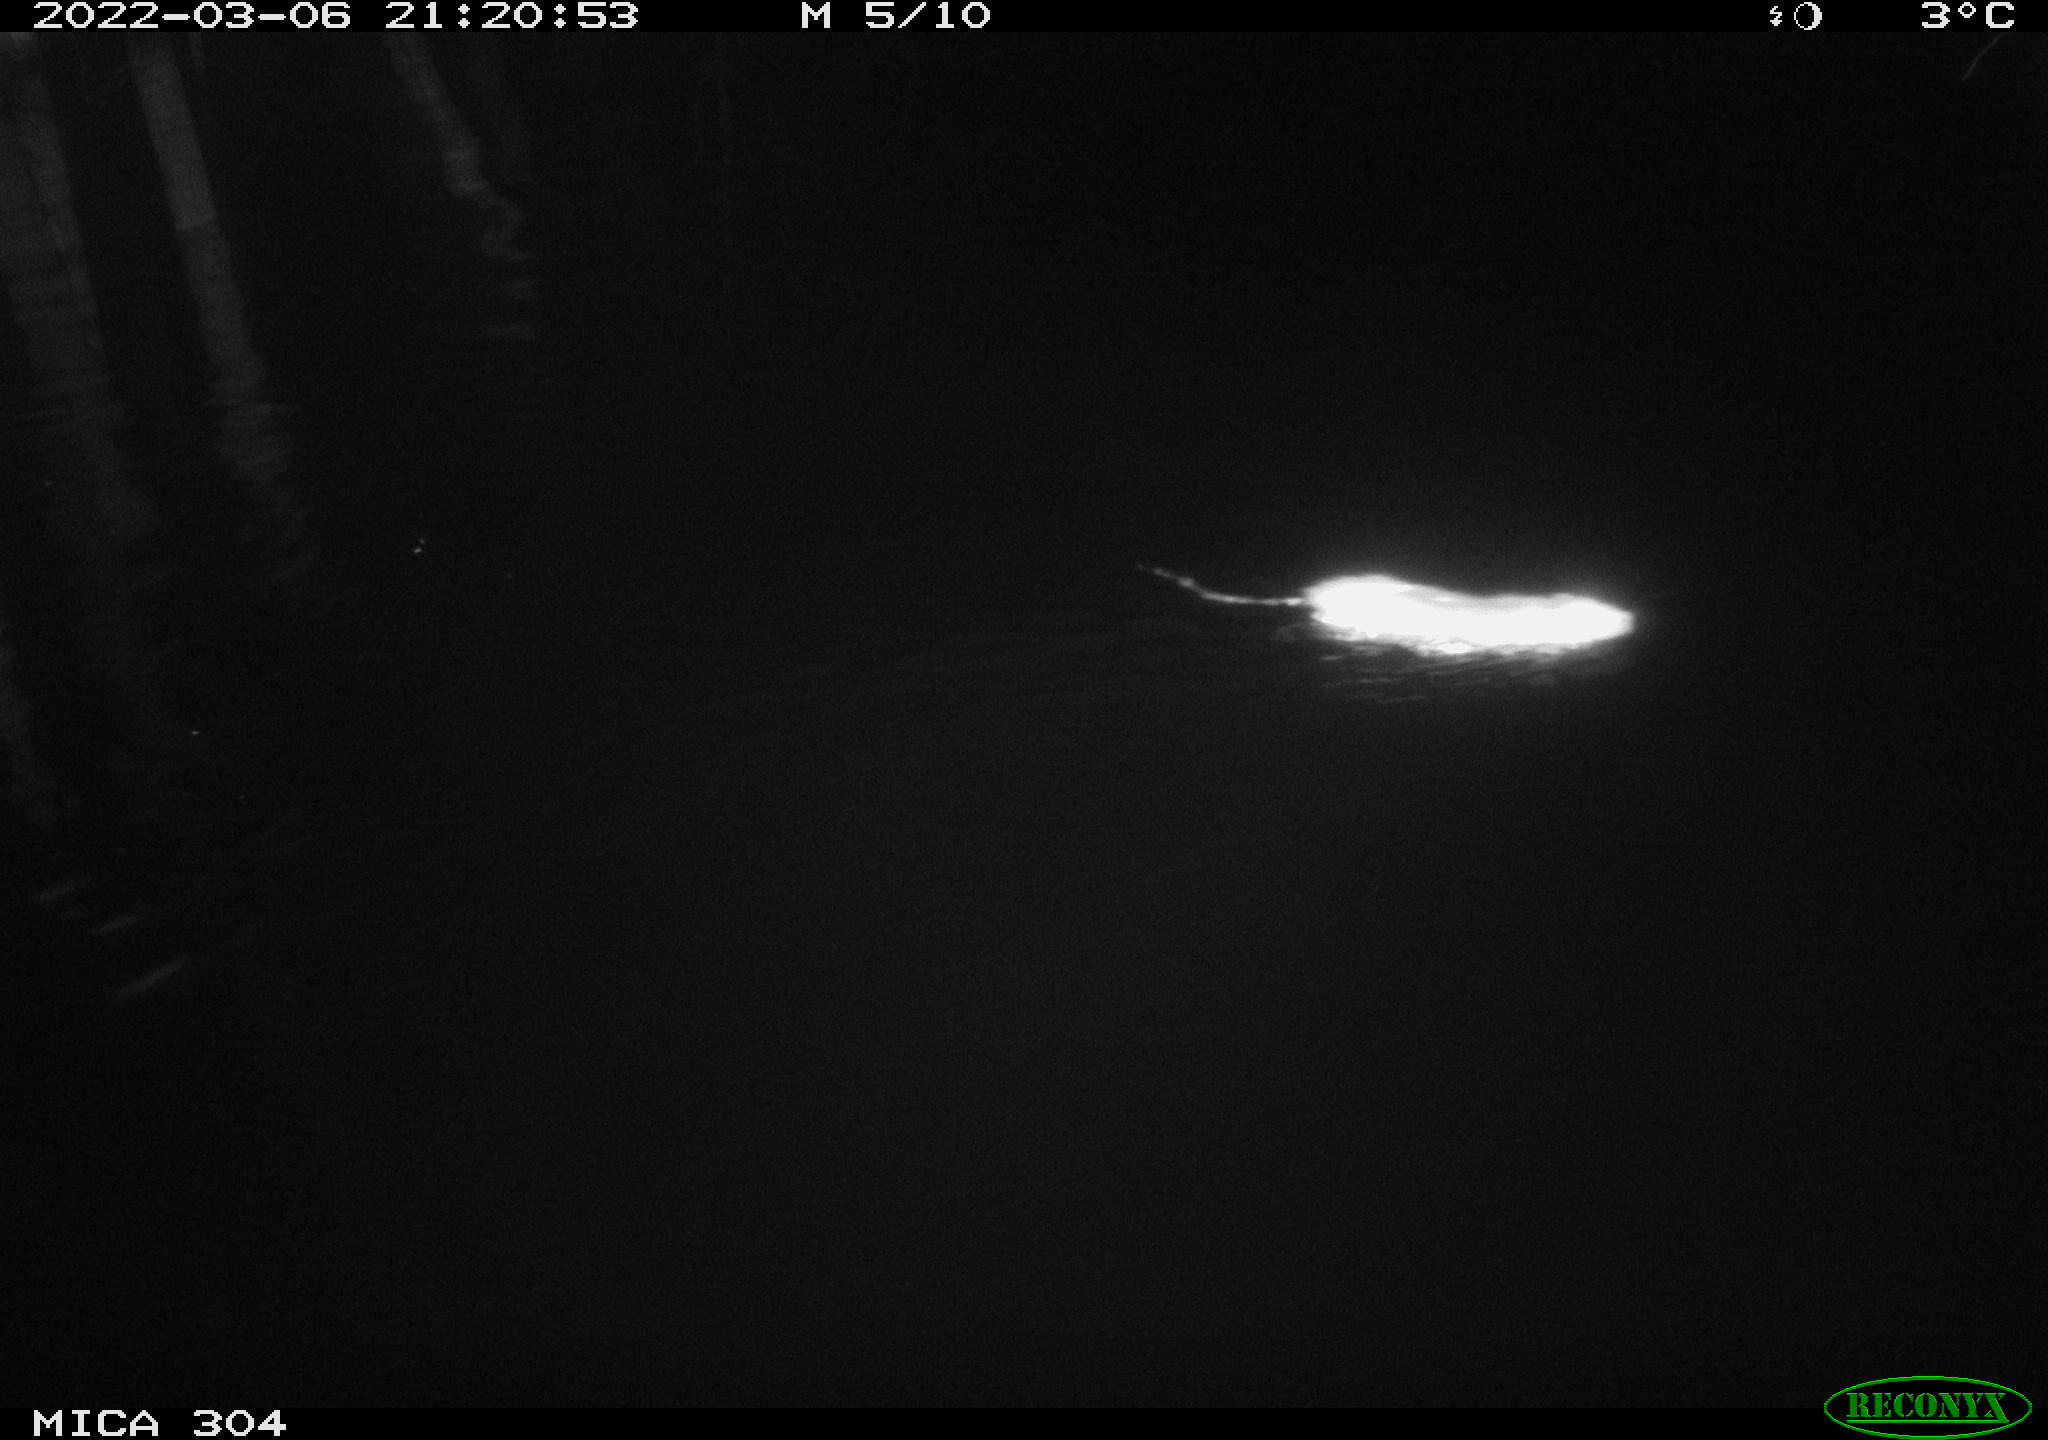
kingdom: Animalia
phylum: Chordata
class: Mammalia
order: Rodentia
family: Muridae
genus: Rattus
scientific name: Rattus norvegicus
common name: Brown rat
